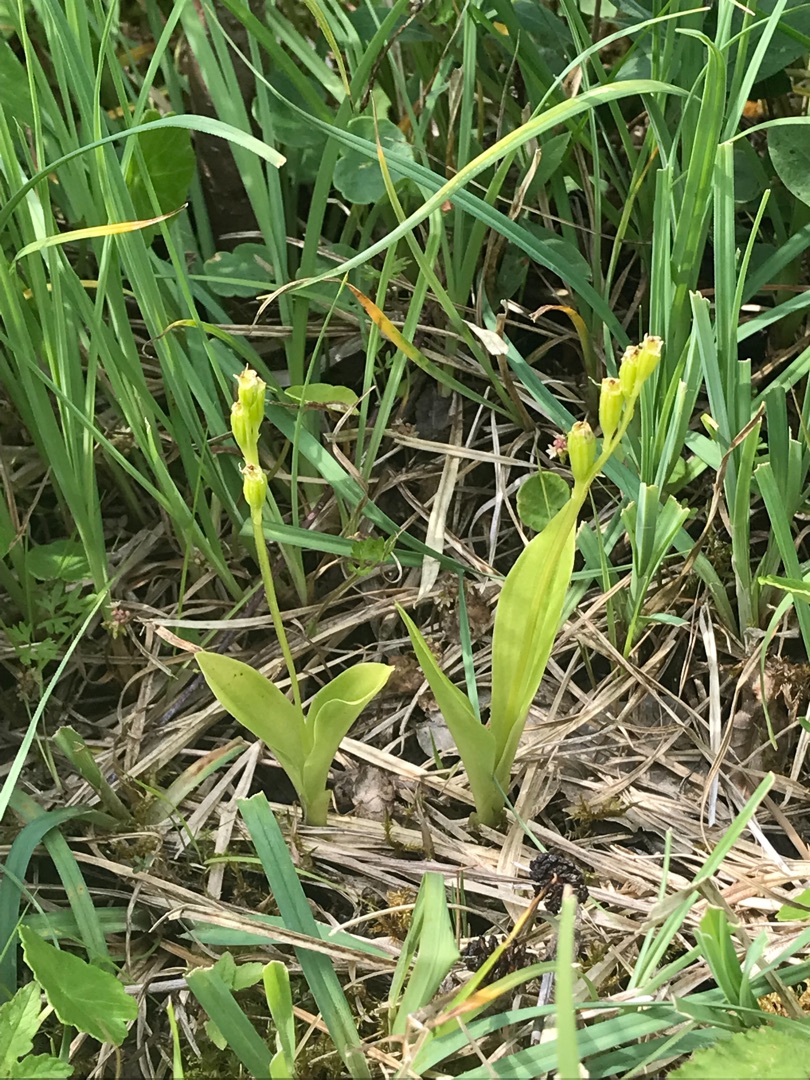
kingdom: Animalia
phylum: Arthropoda
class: Insecta
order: Coleoptera
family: Curculionidae
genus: Liparis
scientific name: Liparis loeselii
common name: Mygblomst
